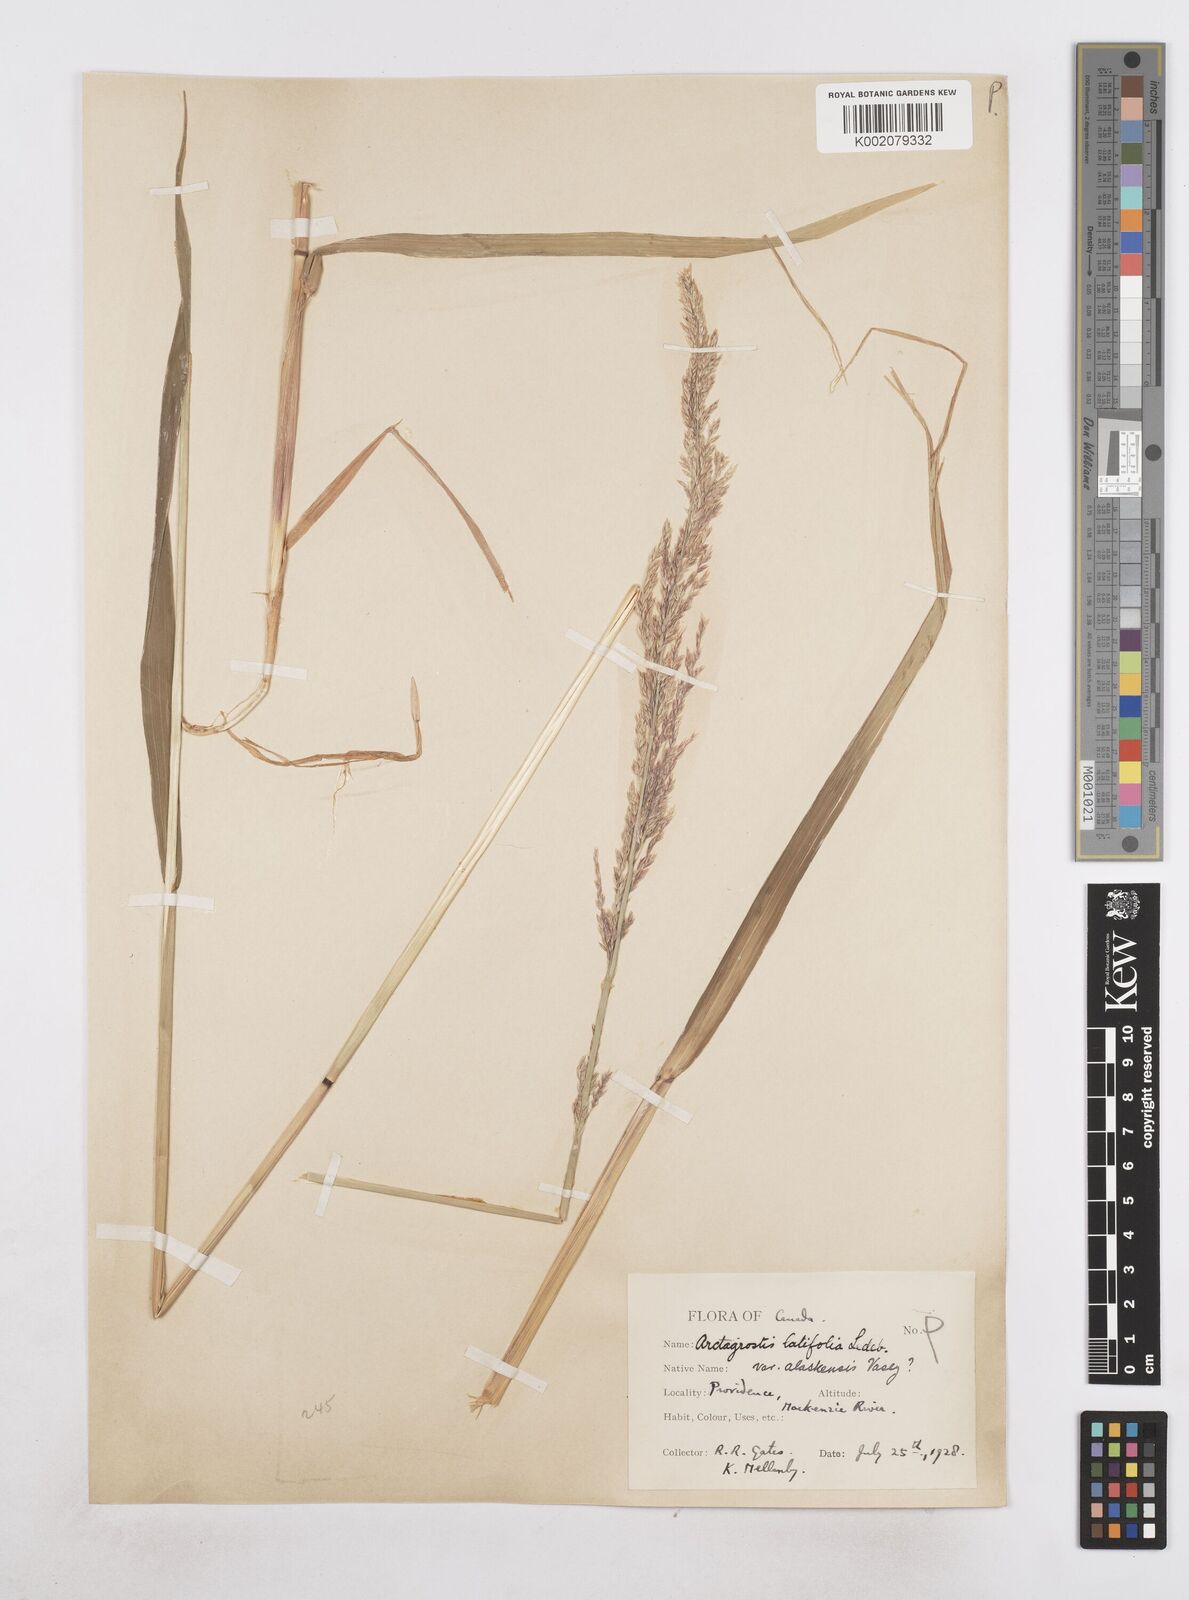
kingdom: Plantae
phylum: Tracheophyta
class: Liliopsida
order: Poales
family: Poaceae
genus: Arctagrostis
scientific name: Arctagrostis arundinacea
